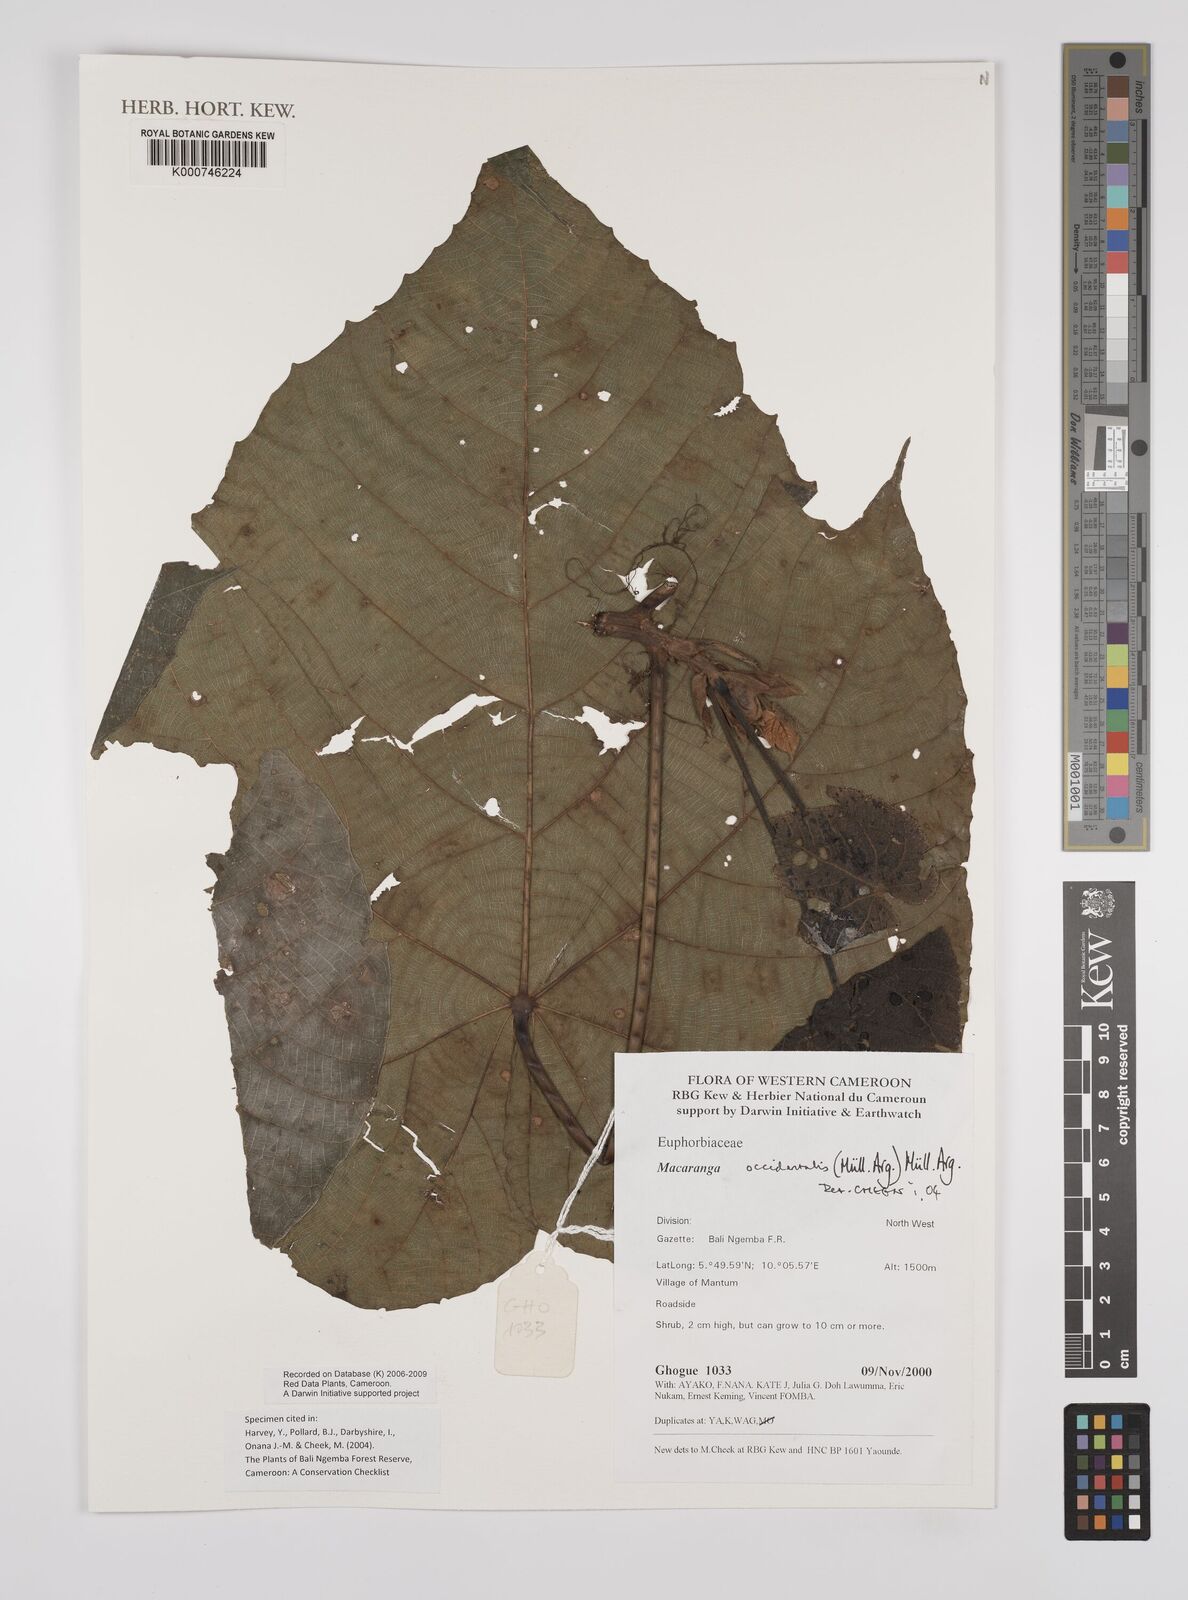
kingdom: Plantae
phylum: Tracheophyta
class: Magnoliopsida
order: Malpighiales
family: Euphorbiaceae
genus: Macaranga
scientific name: Macaranga
